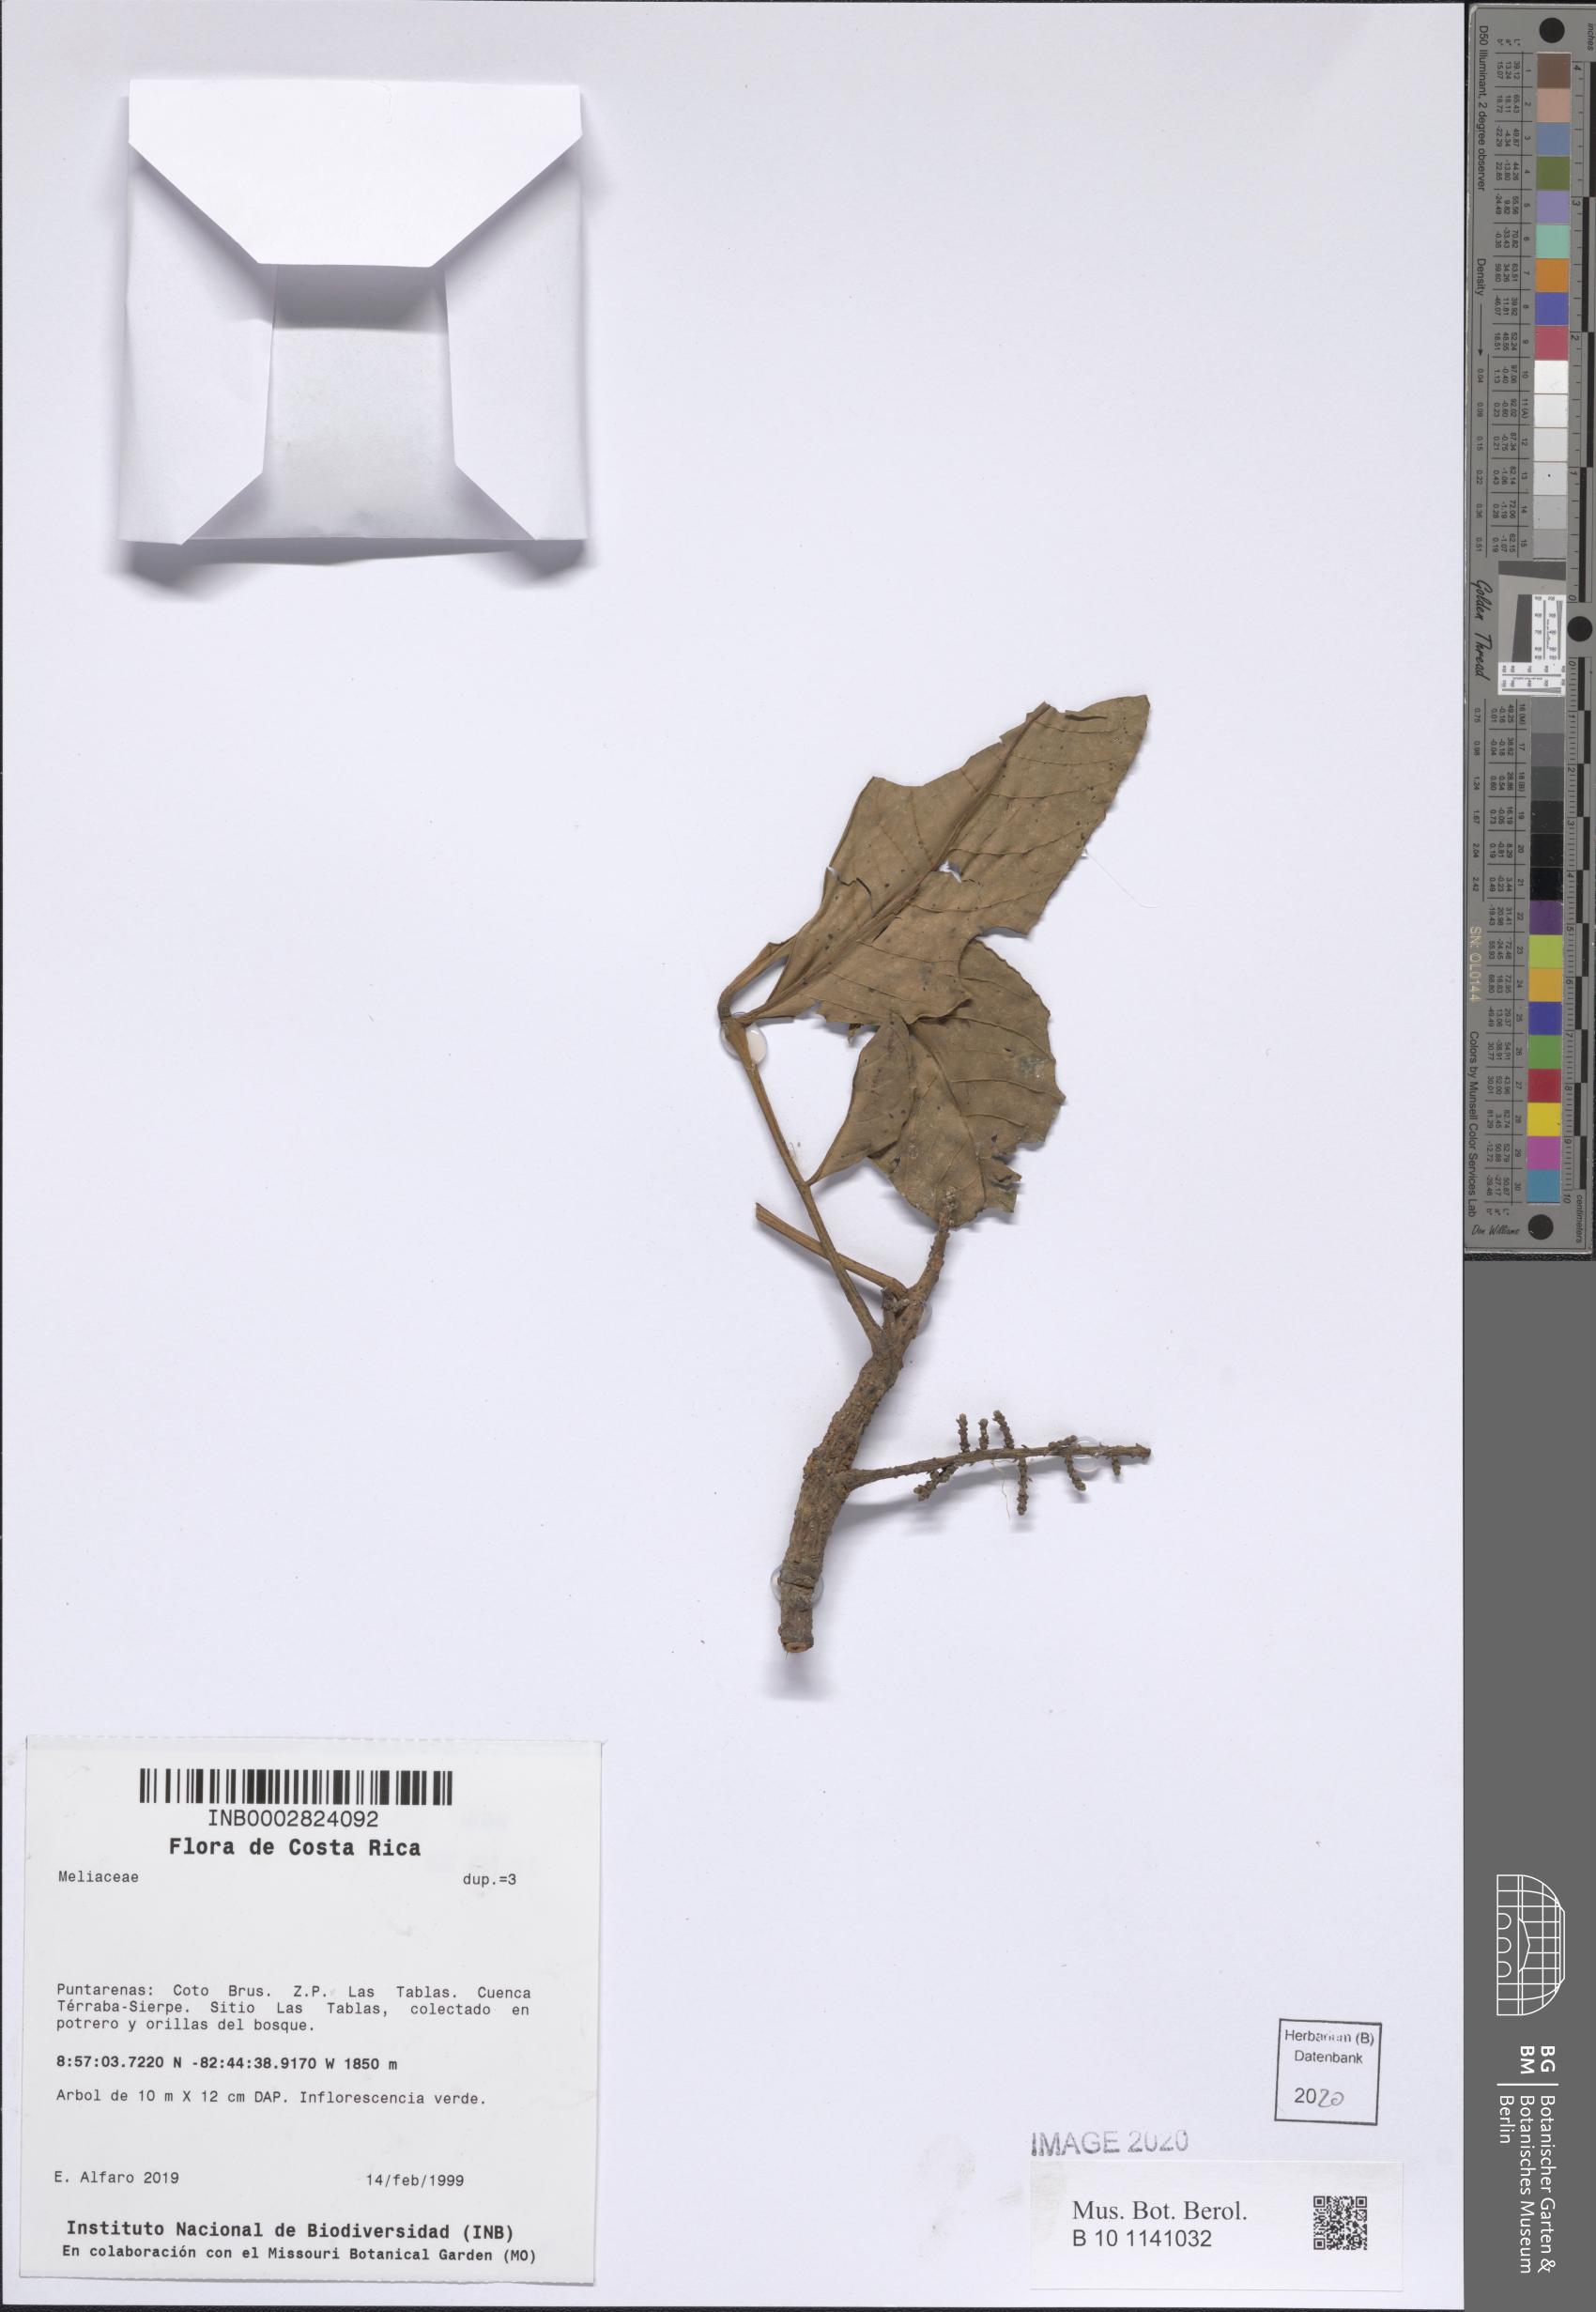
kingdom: Plantae
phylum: Tracheophyta
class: Magnoliopsida
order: Sapindales
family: Meliaceae
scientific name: Meliaceae
